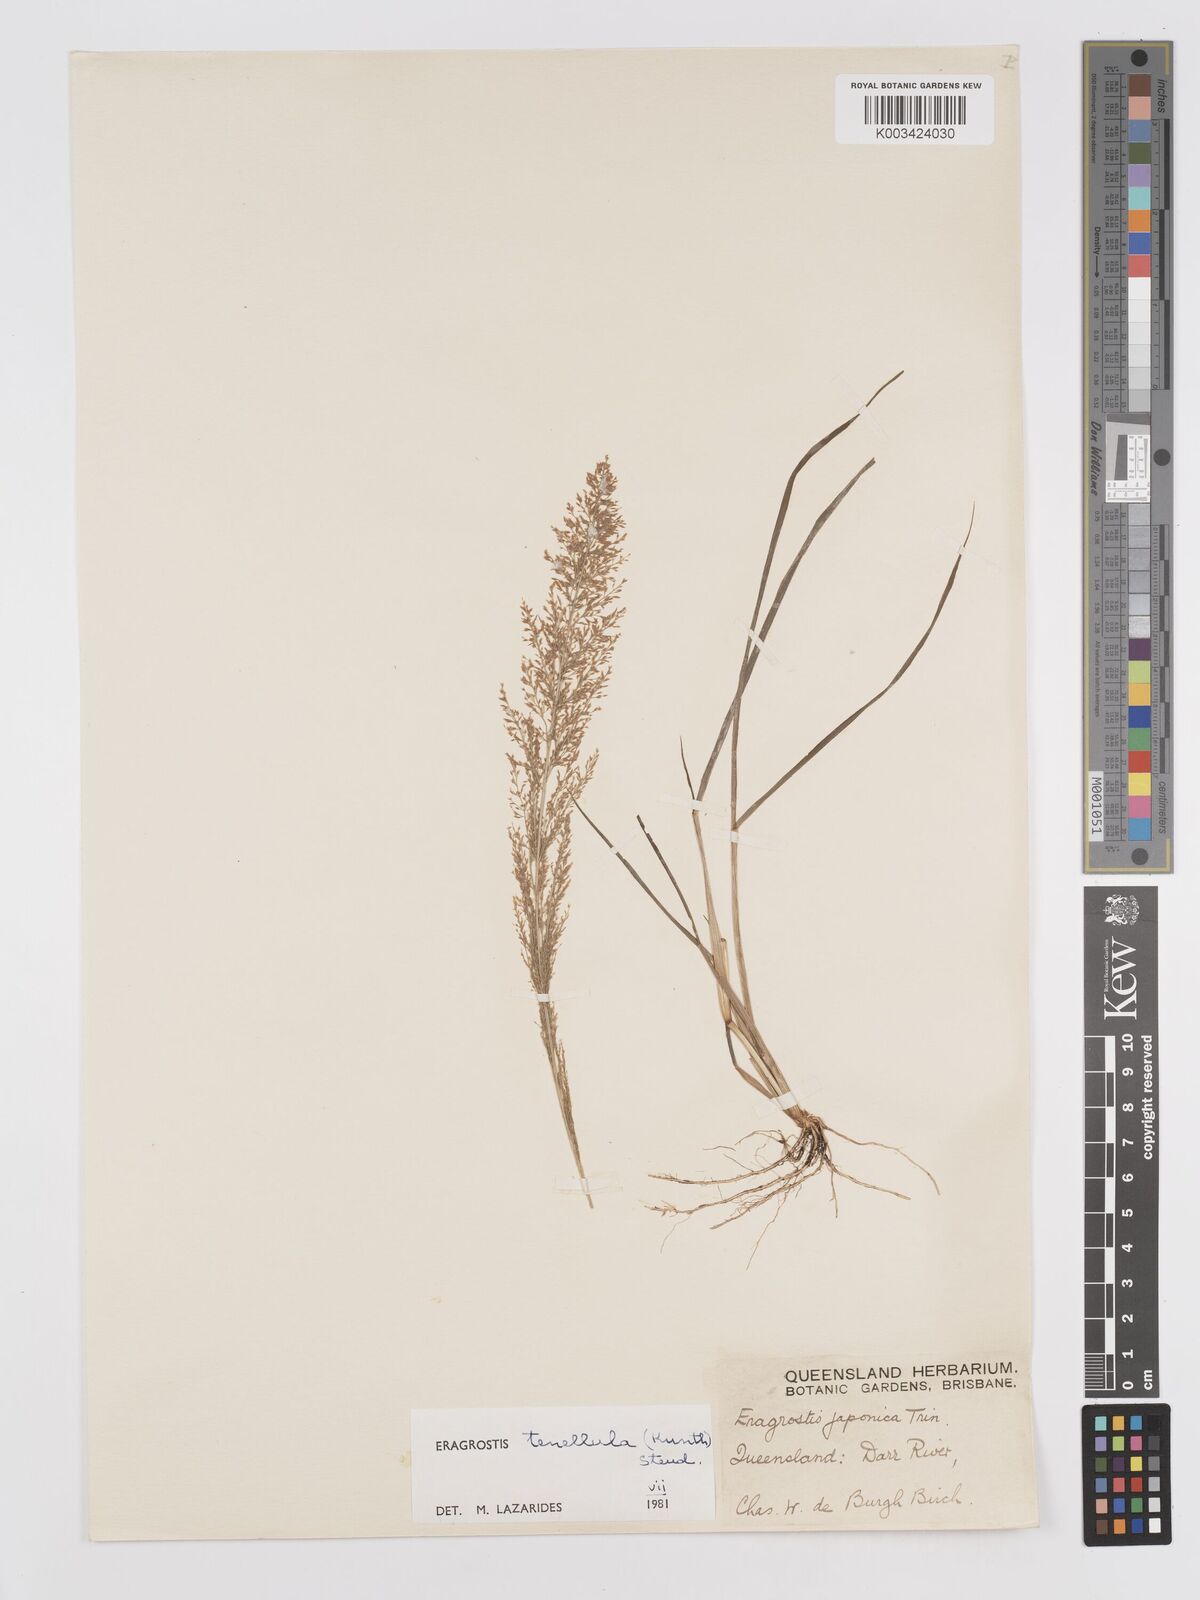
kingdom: Plantae
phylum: Tracheophyta
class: Liliopsida
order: Poales
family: Poaceae
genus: Eragrostis
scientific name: Eragrostis tenellula
